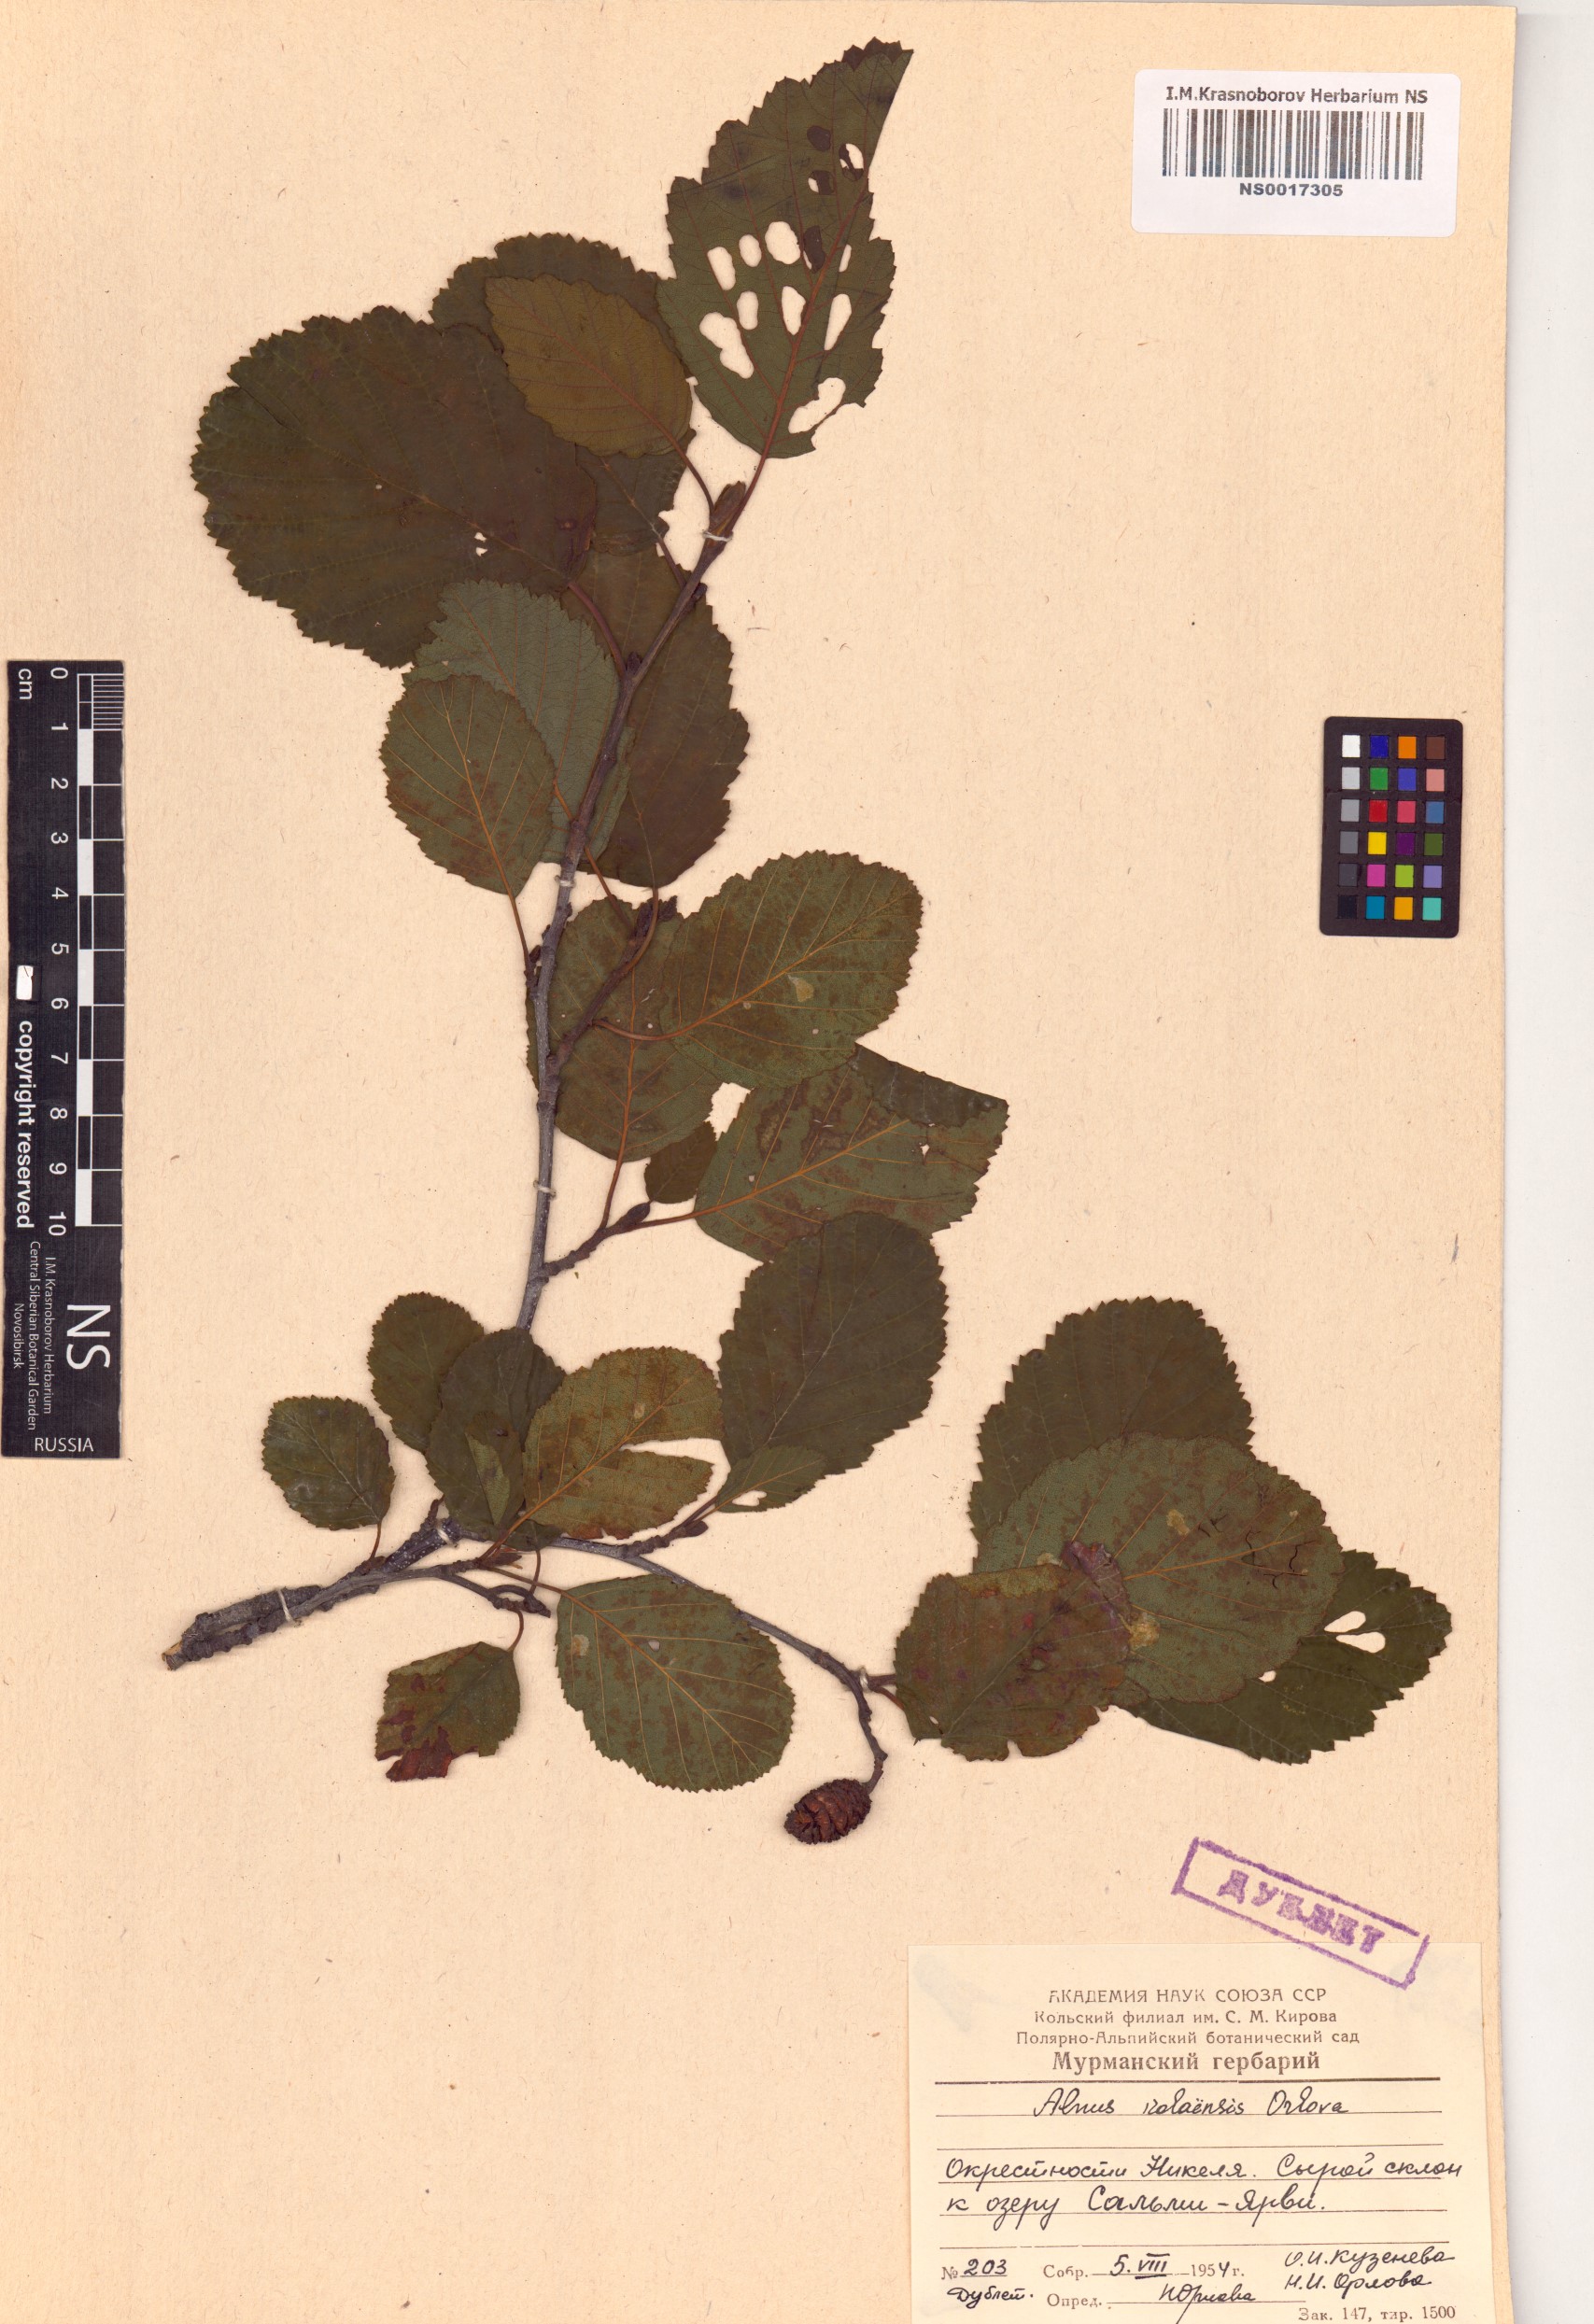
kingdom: Plantae
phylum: Tracheophyta
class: Magnoliopsida
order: Fagales
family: Betulaceae
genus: Alnus
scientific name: Alnus incana
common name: Grey alder
